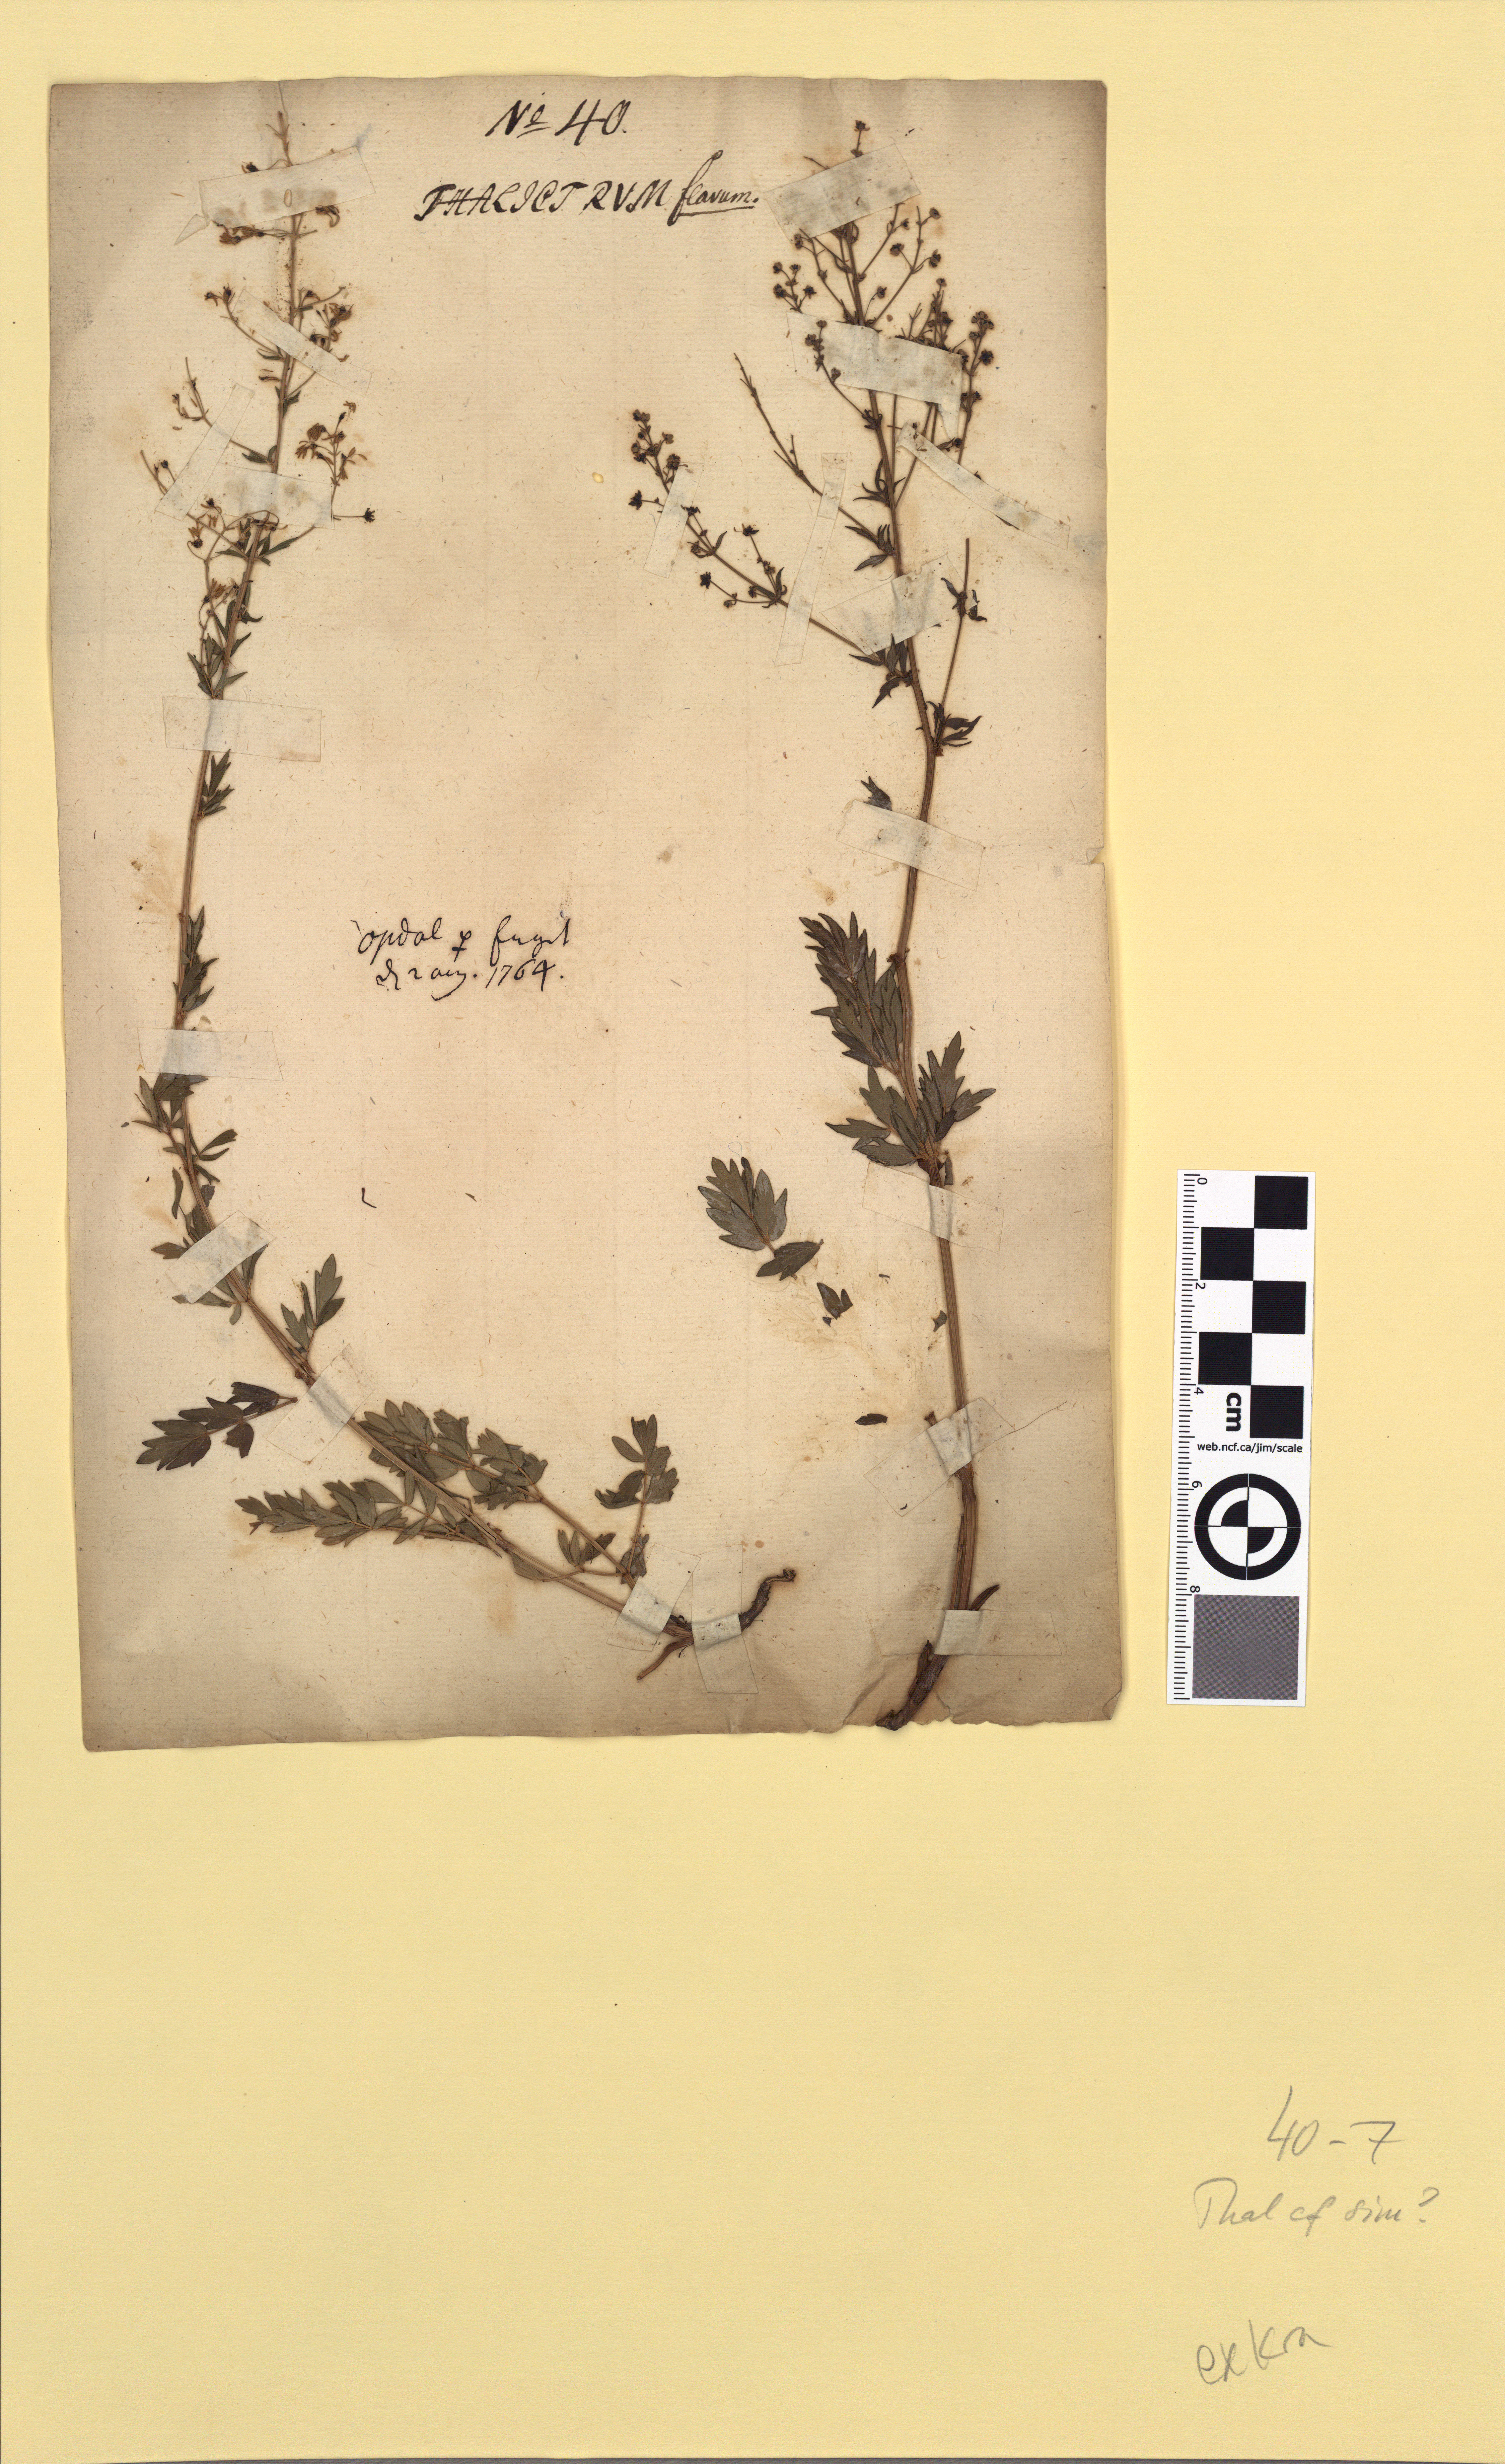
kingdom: Plantae
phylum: Tracheophyta
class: Magnoliopsida
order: Ranunculales
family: Ranunculaceae
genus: Thalictrum
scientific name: Thalictrum simplex
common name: Small meadow-rue
